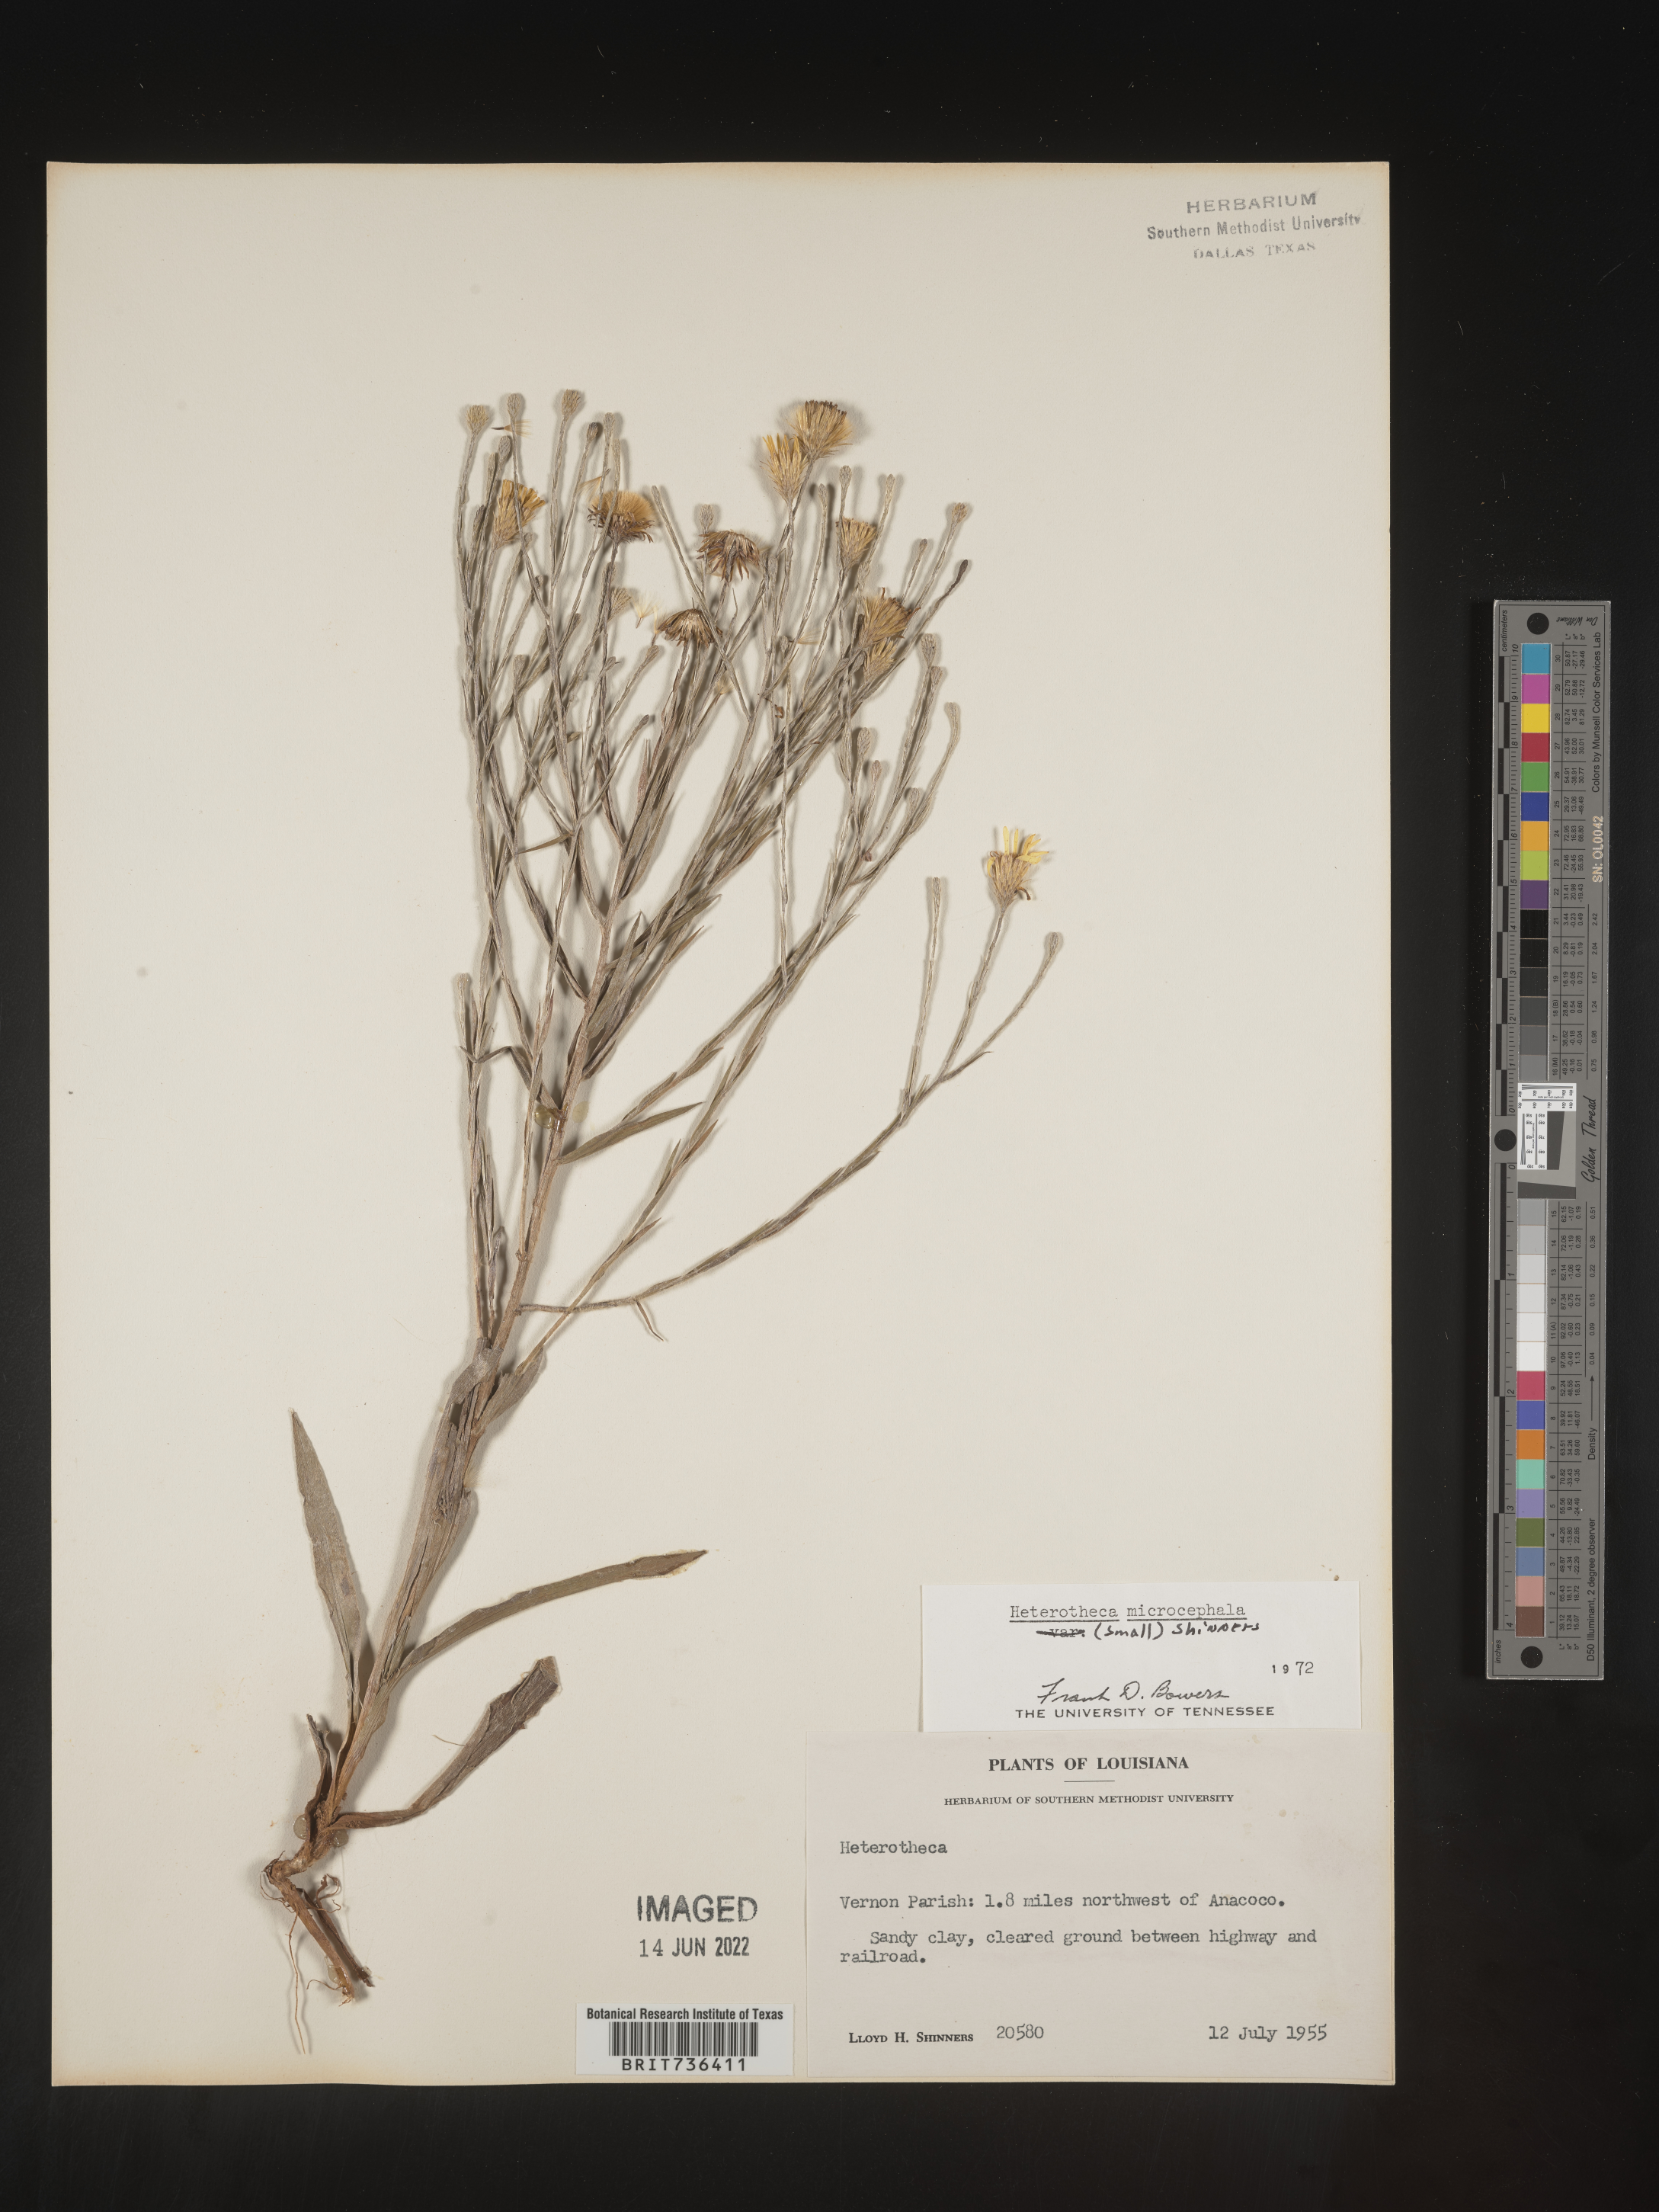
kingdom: Plantae
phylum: Tracheophyta
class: Magnoliopsida
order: Asterales
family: Asteraceae
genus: Pityopsis
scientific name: Pityopsis tenuifolia
